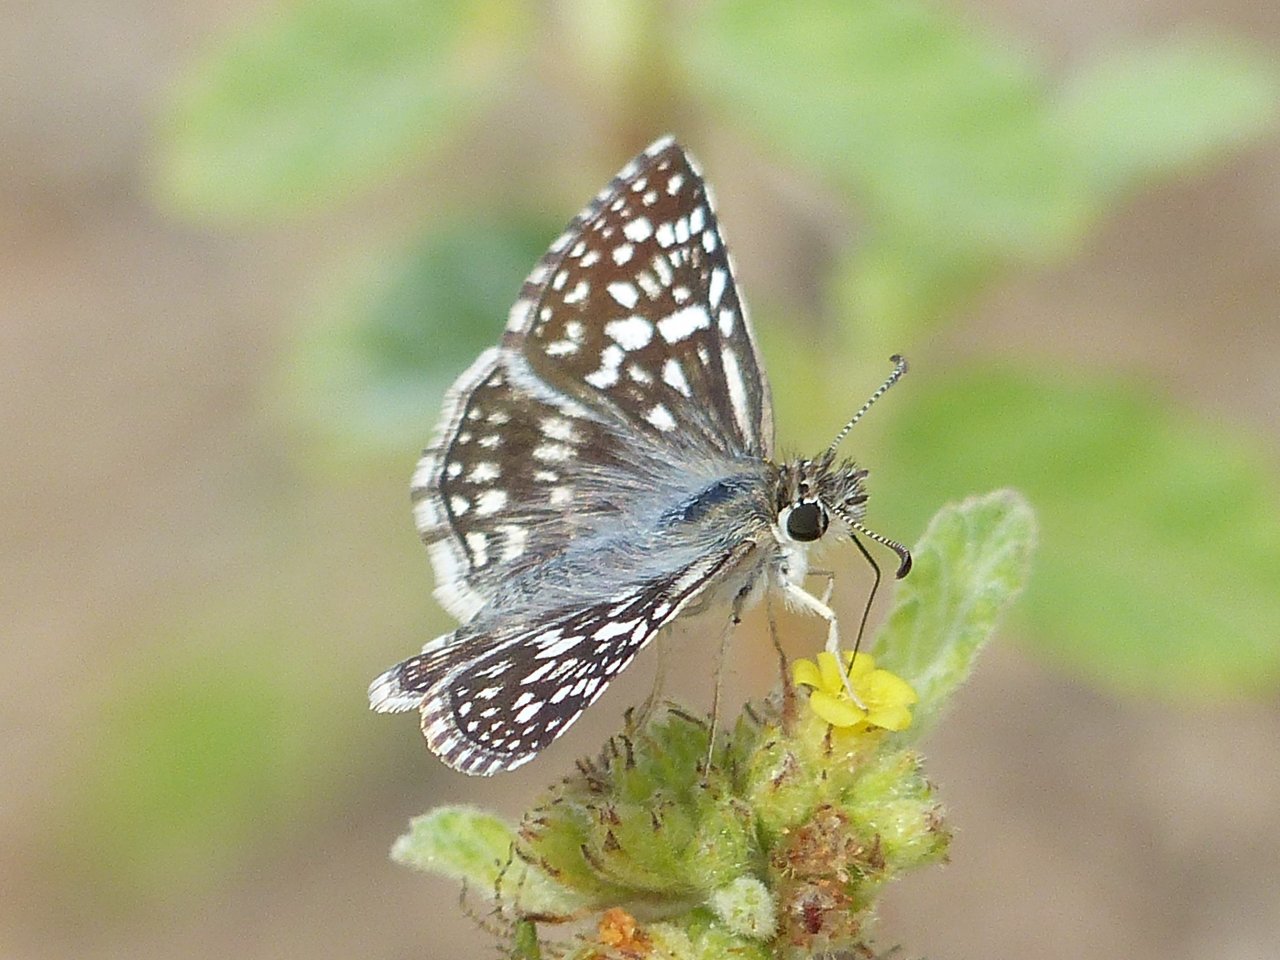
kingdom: Animalia
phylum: Arthropoda
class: Insecta
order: Lepidoptera
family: Hesperiidae
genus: Pyrgus
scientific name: Pyrgus oileus
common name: Desert Checkered-Skipper
